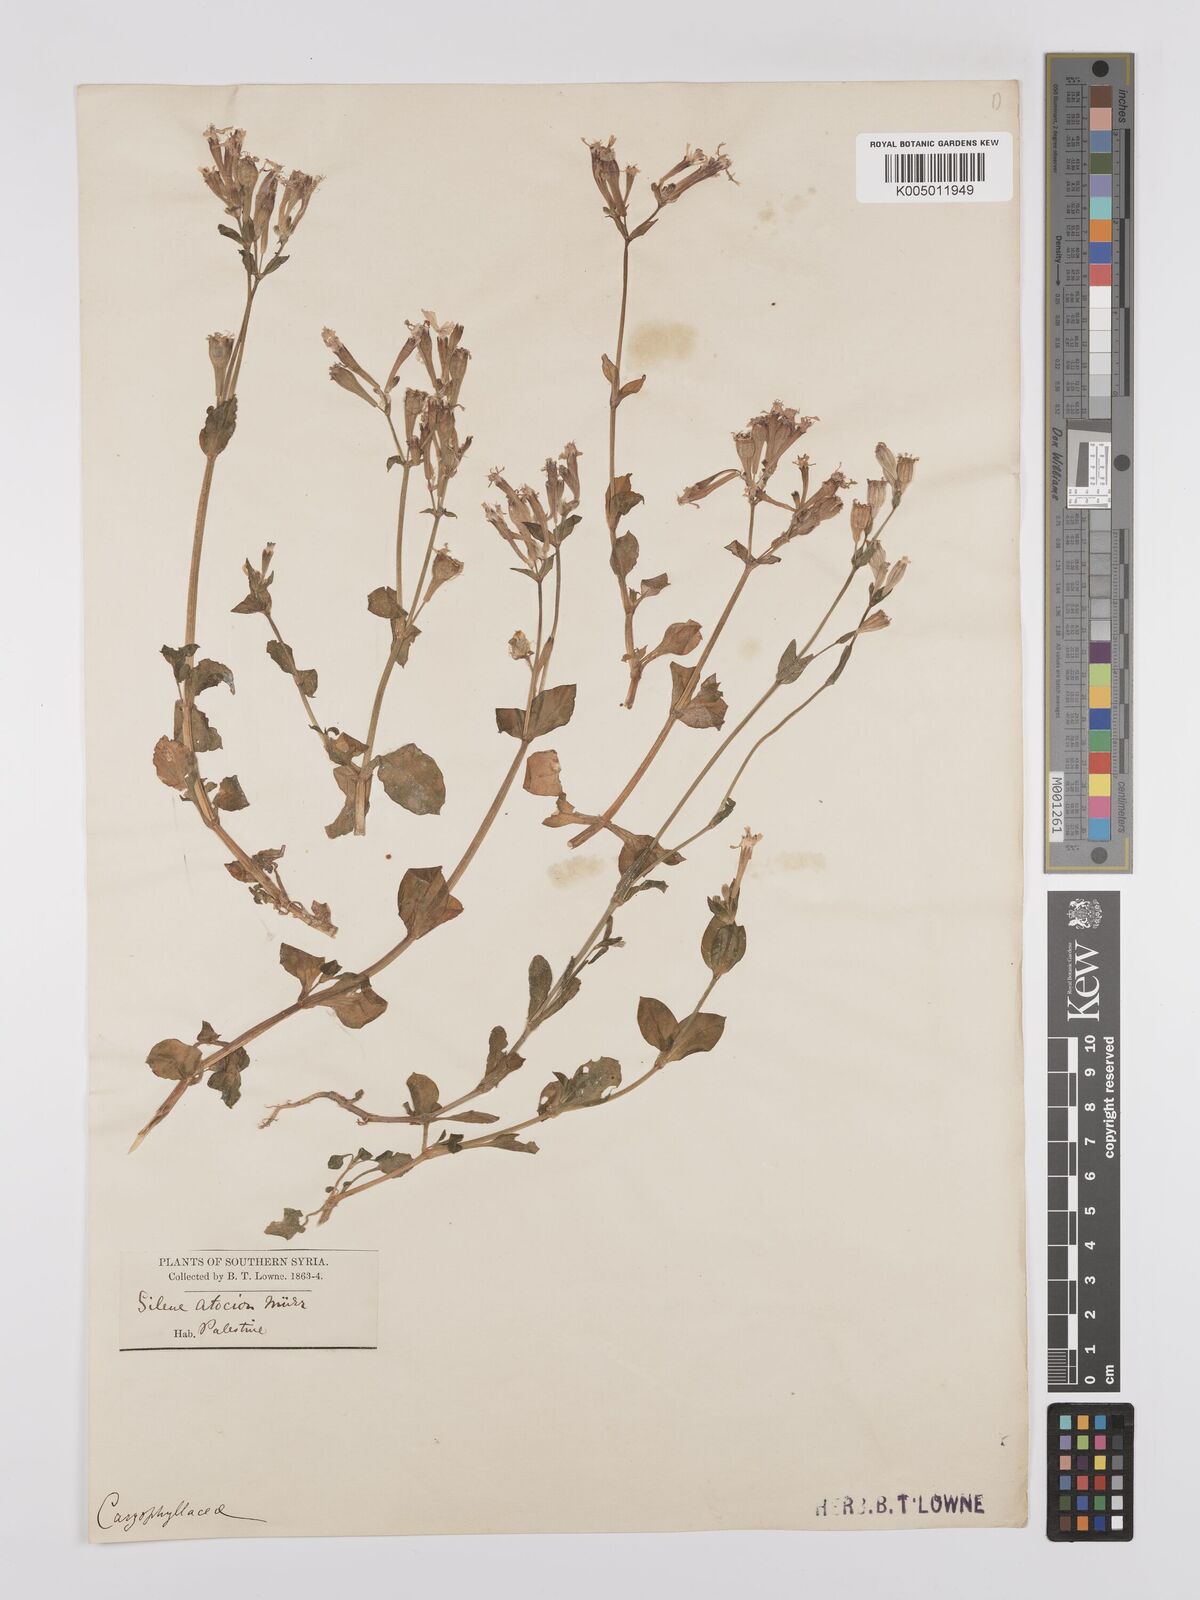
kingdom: Plantae
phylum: Tracheophyta
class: Magnoliopsida
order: Caryophyllales
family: Caryophyllaceae
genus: Silene
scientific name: Silene aegyptiaca
